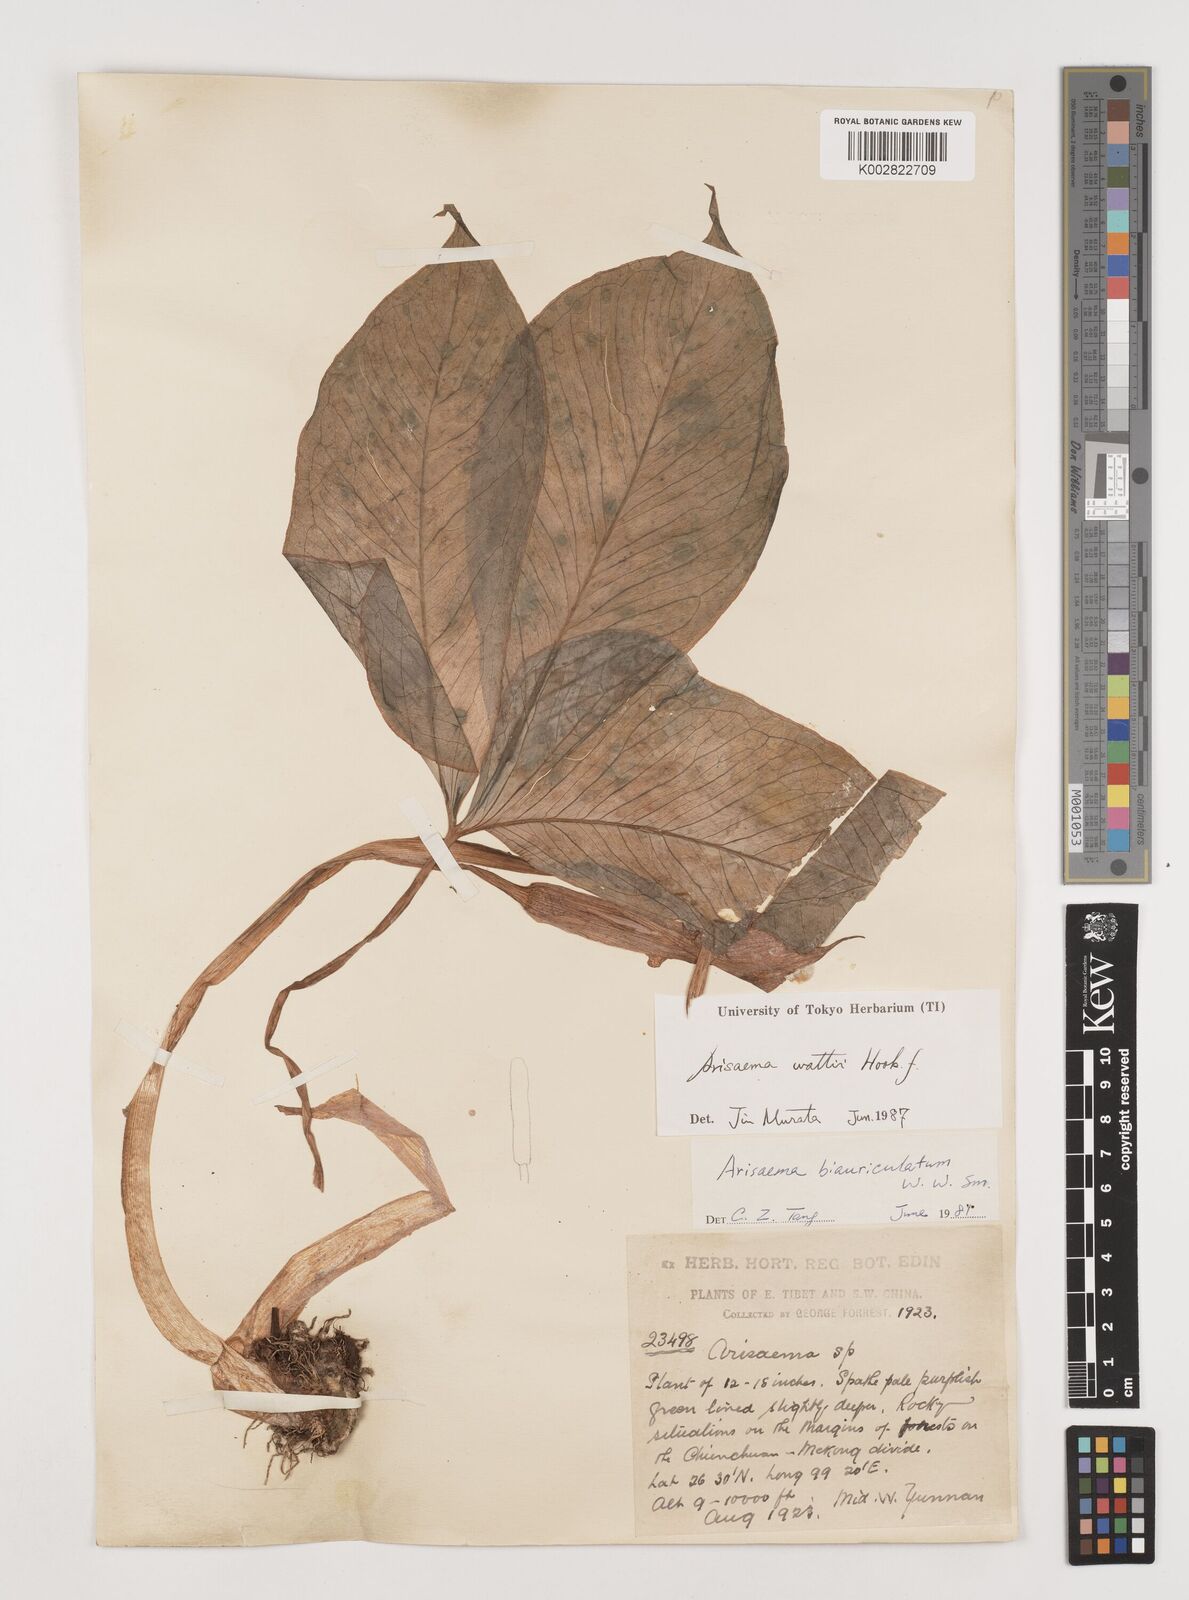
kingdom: Plantae
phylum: Tracheophyta
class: Liliopsida
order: Alismatales
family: Araceae
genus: Arisaema
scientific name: Arisaema wattii
